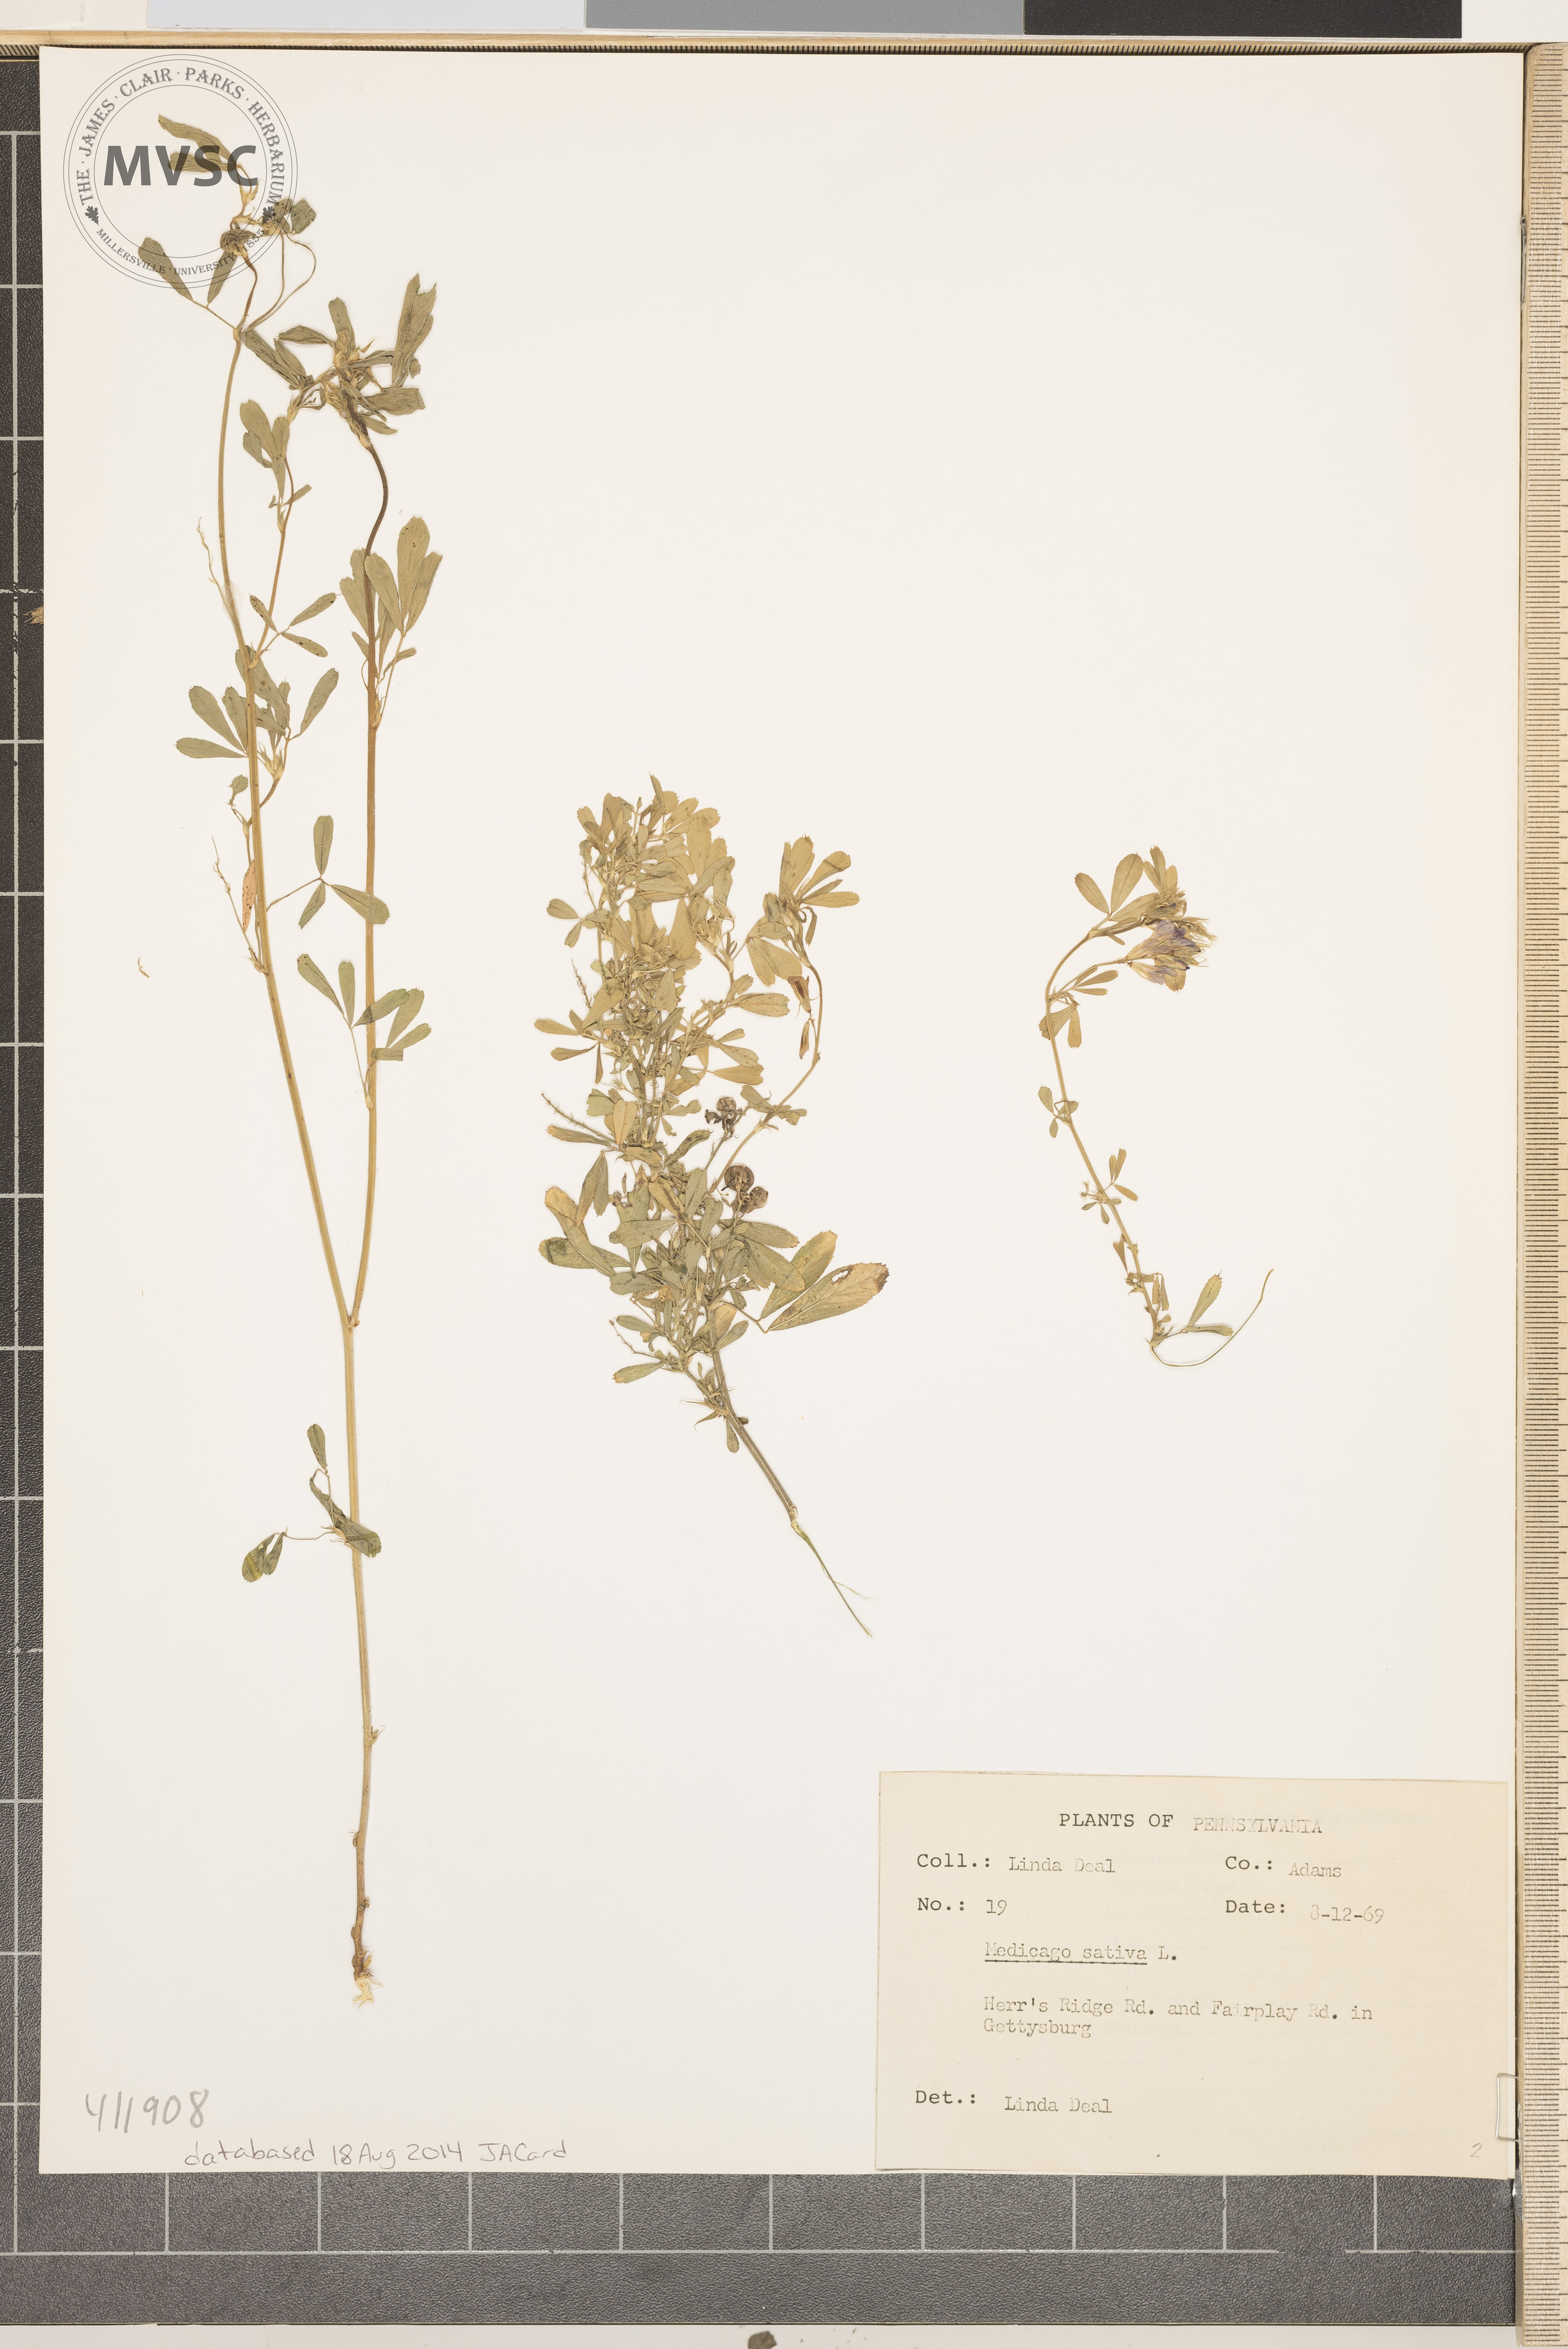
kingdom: Plantae
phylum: Tracheophyta
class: Magnoliopsida
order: Fabales
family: Fabaceae
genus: Medicago
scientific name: Medicago sativa
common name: alfalfa
